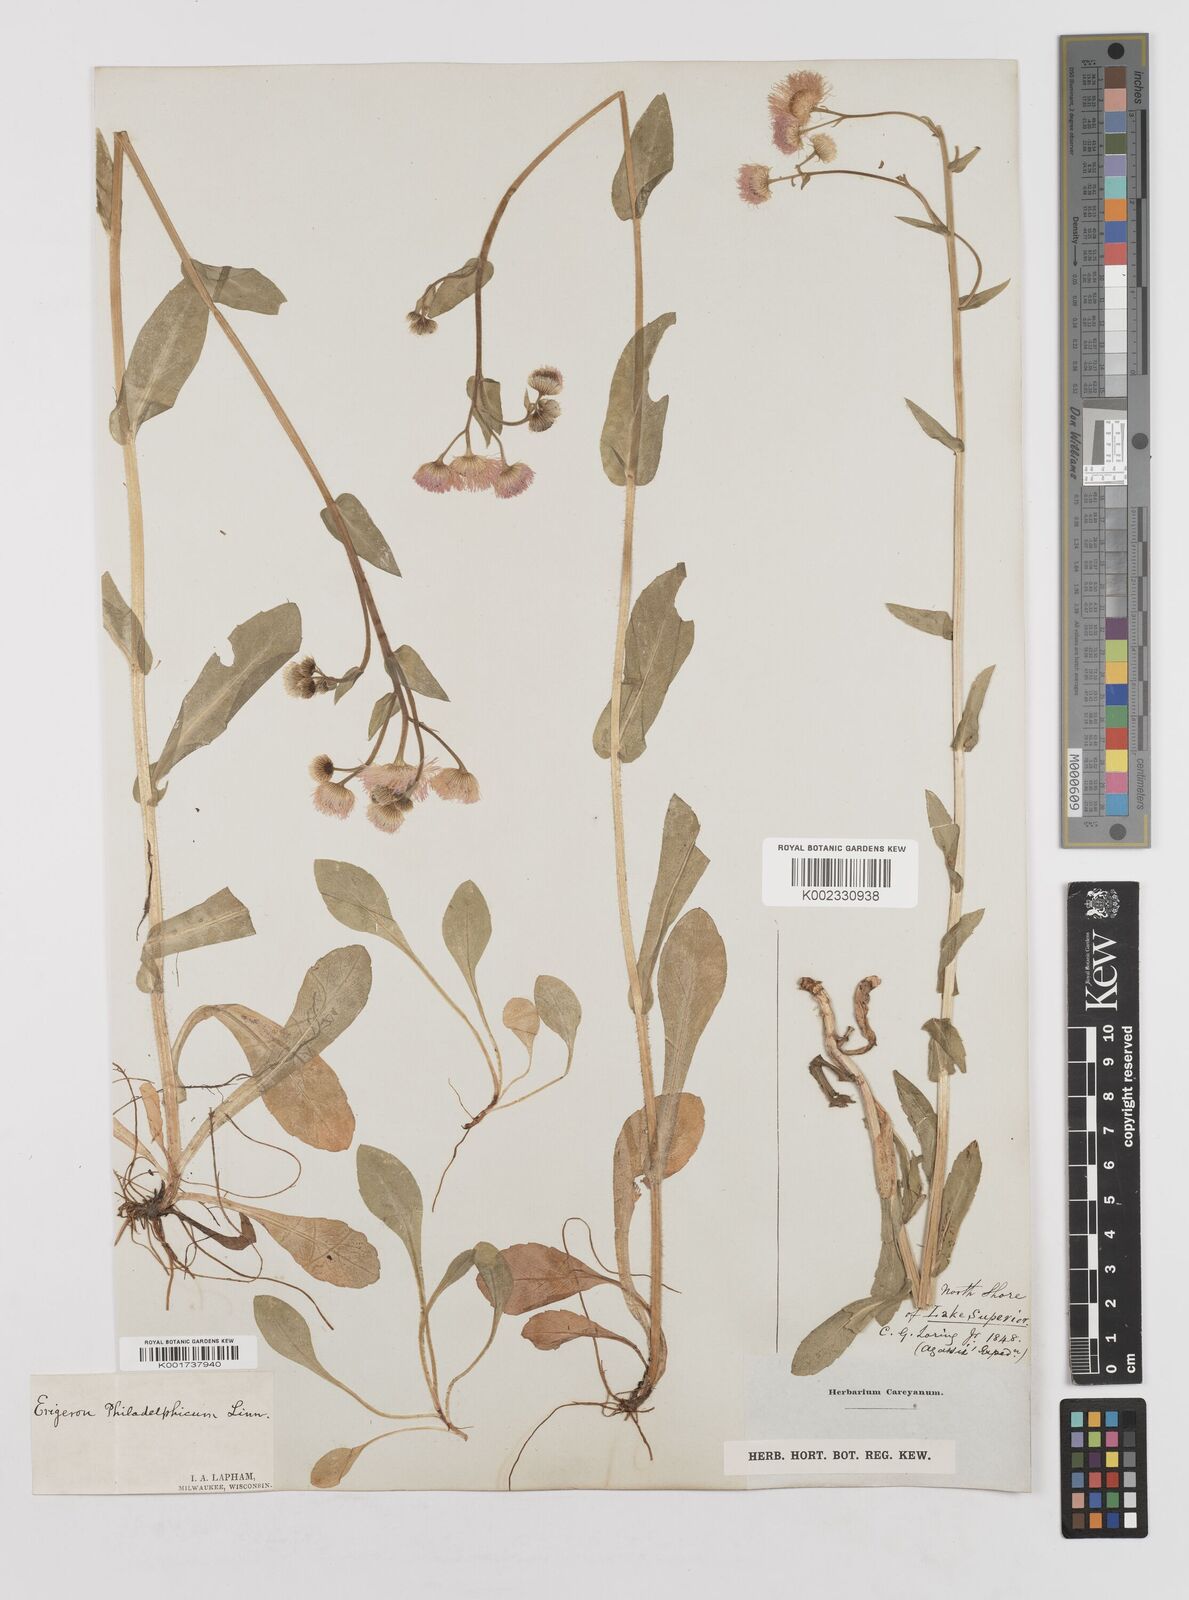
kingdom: Plantae
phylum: Tracheophyta
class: Magnoliopsida
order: Asterales
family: Asteraceae
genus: Erigeron
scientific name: Erigeron philadelphicus
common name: Robin's-plantain
